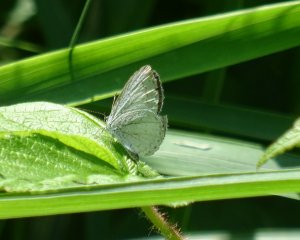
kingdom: Animalia
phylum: Arthropoda
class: Insecta
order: Lepidoptera
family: Lycaenidae
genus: Celastrina
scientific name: Celastrina
